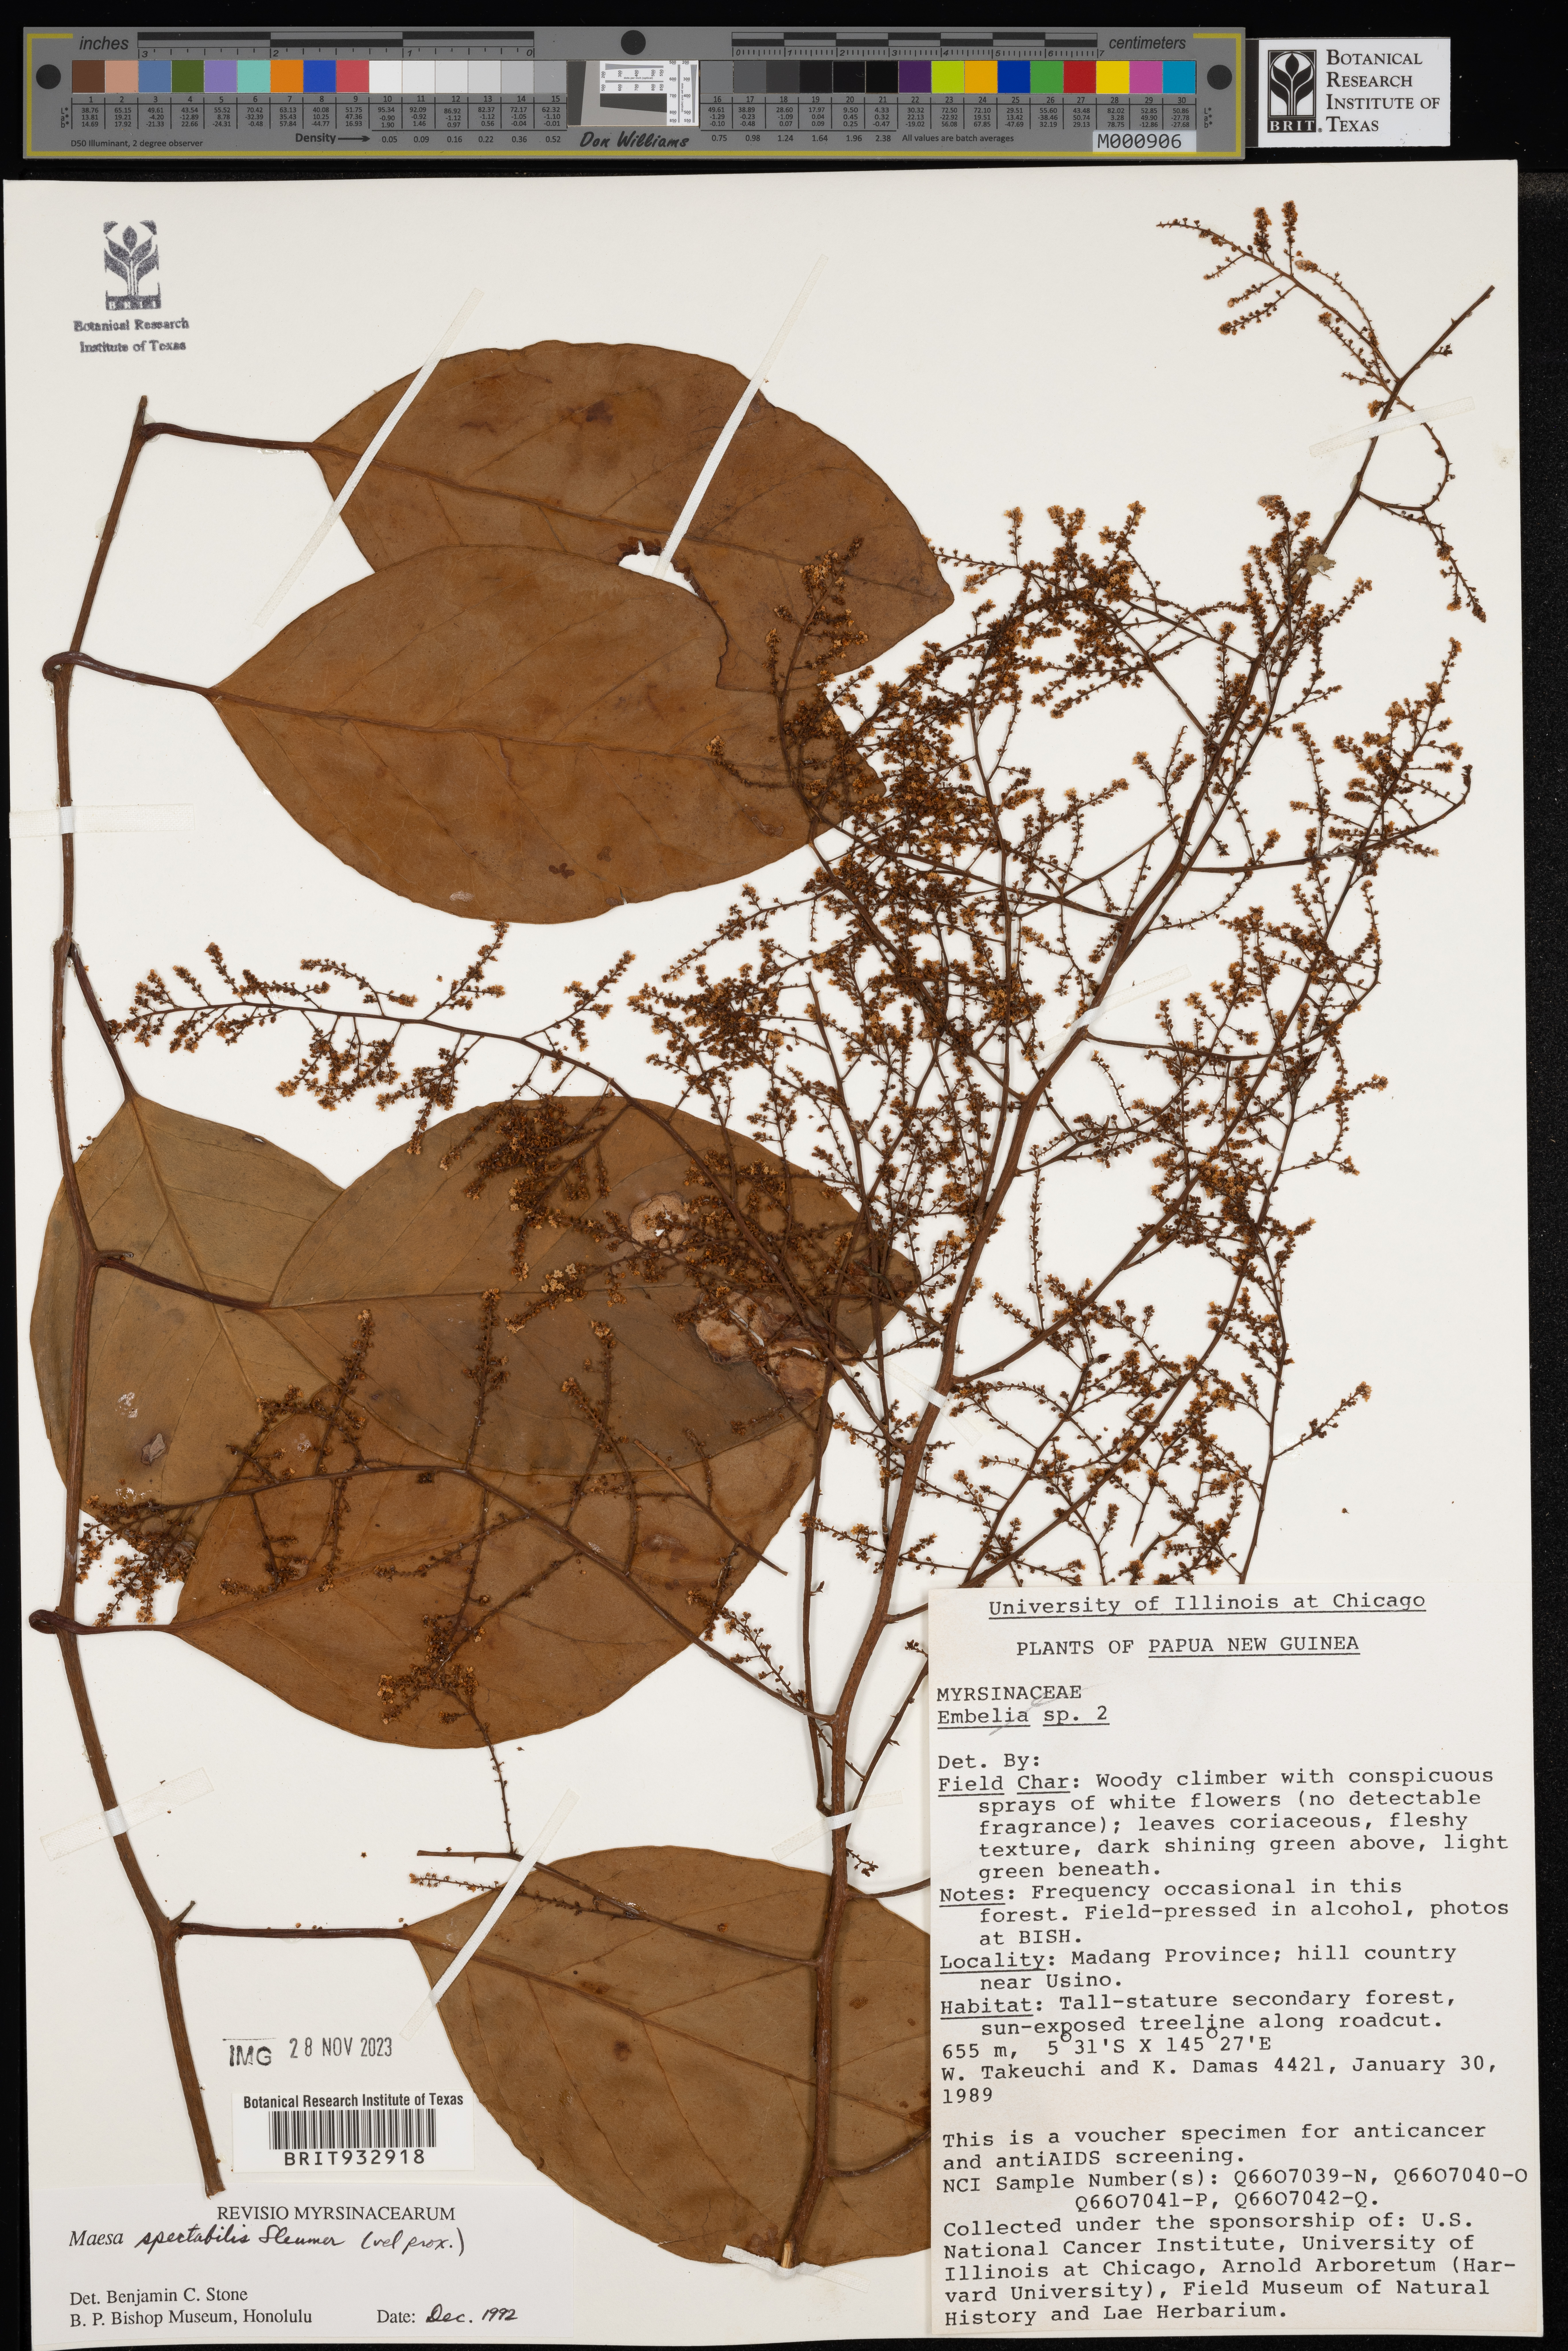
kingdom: Plantae
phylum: Tracheophyta
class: Magnoliopsida
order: Ericales
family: Primulaceae
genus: Maesa
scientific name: Maesa
